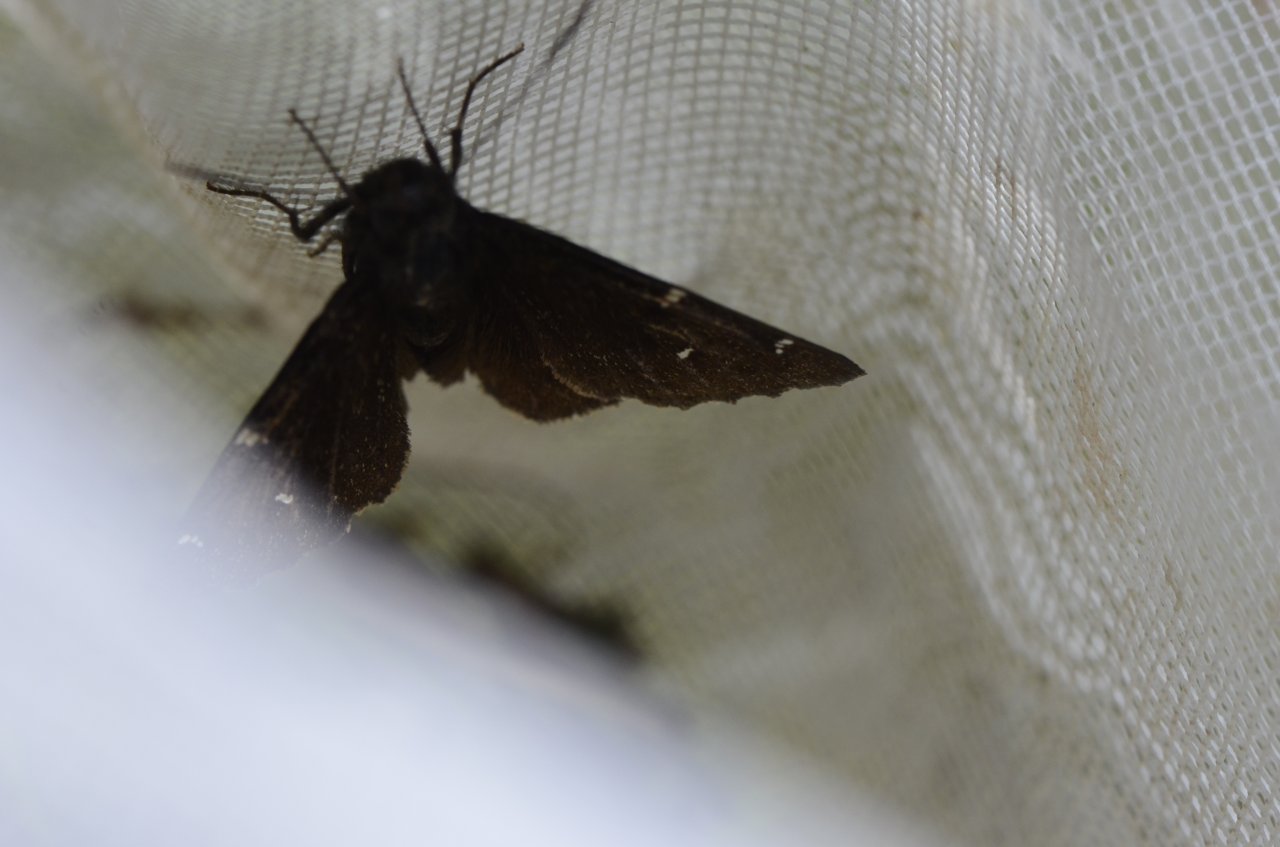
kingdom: Animalia
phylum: Arthropoda
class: Insecta
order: Lepidoptera
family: Hesperiidae
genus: Autochton
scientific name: Autochton
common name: Northern Cloudywing
